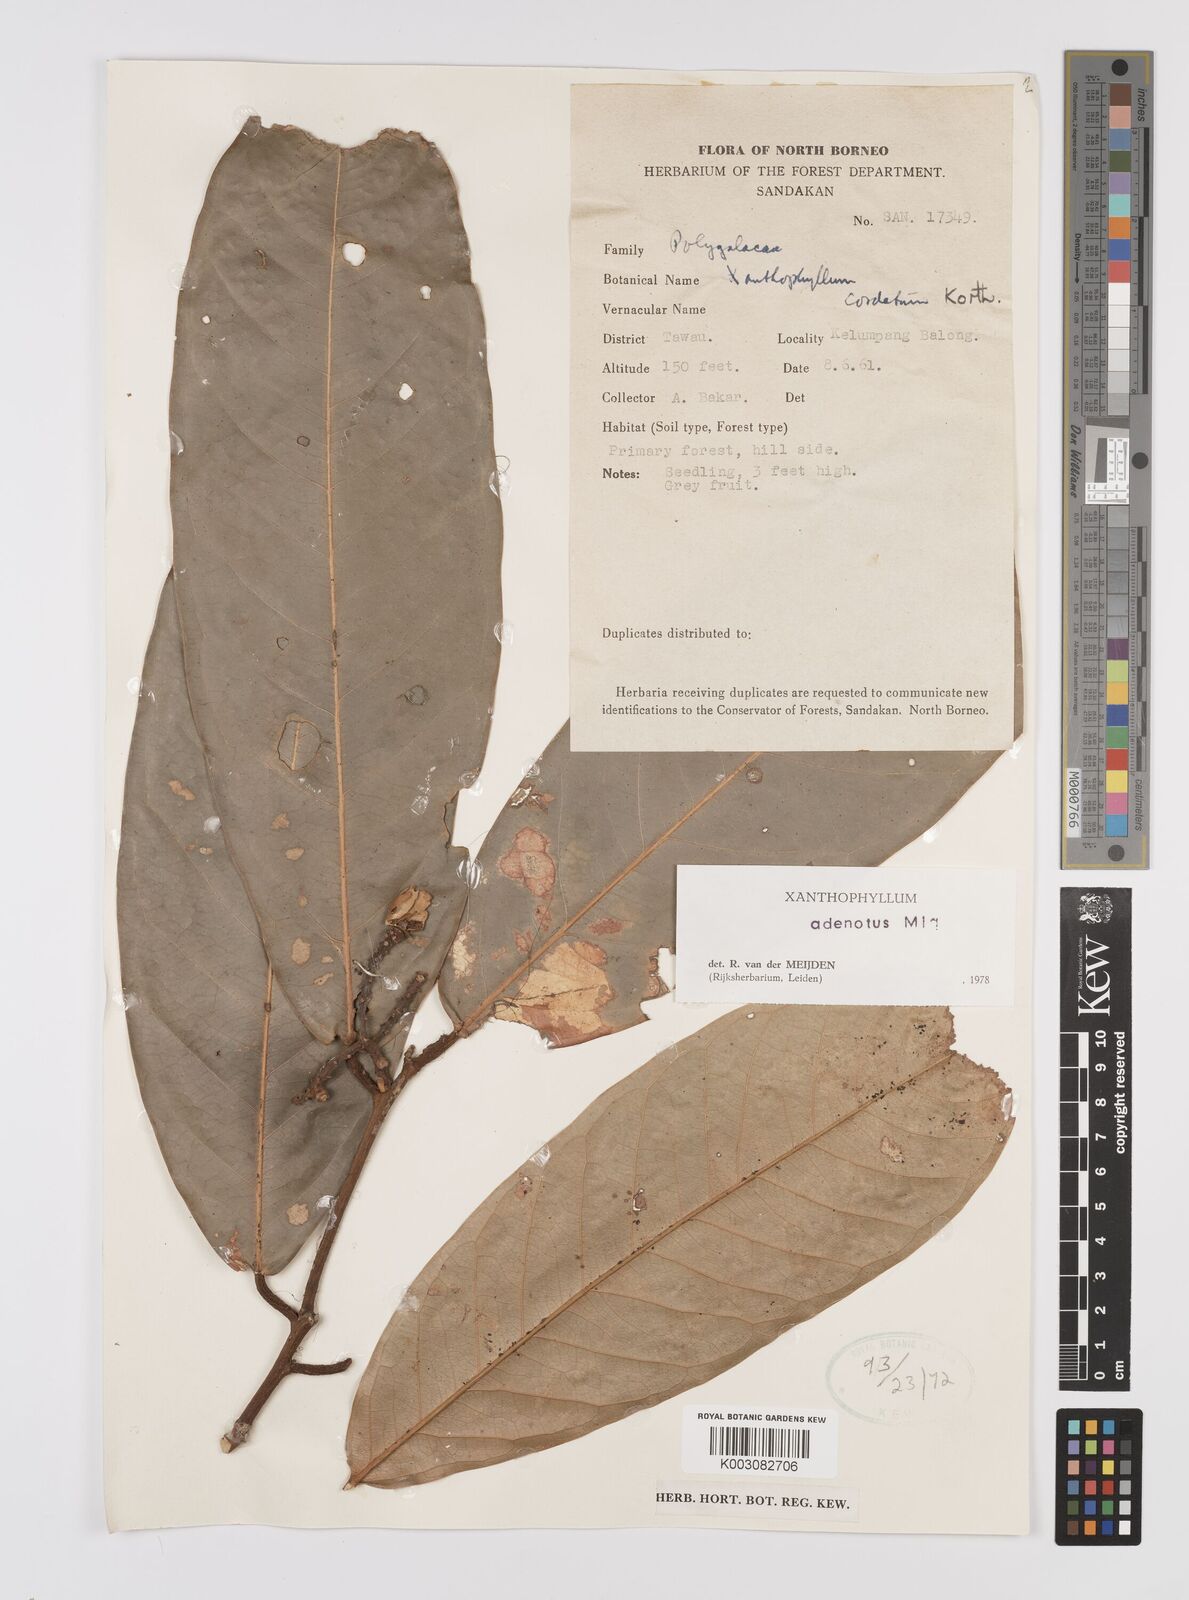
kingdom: Plantae
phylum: Tracheophyta
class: Magnoliopsida
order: Fabales
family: Polygalaceae
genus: Xanthophyllum
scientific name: Xanthophyllum adenotus
